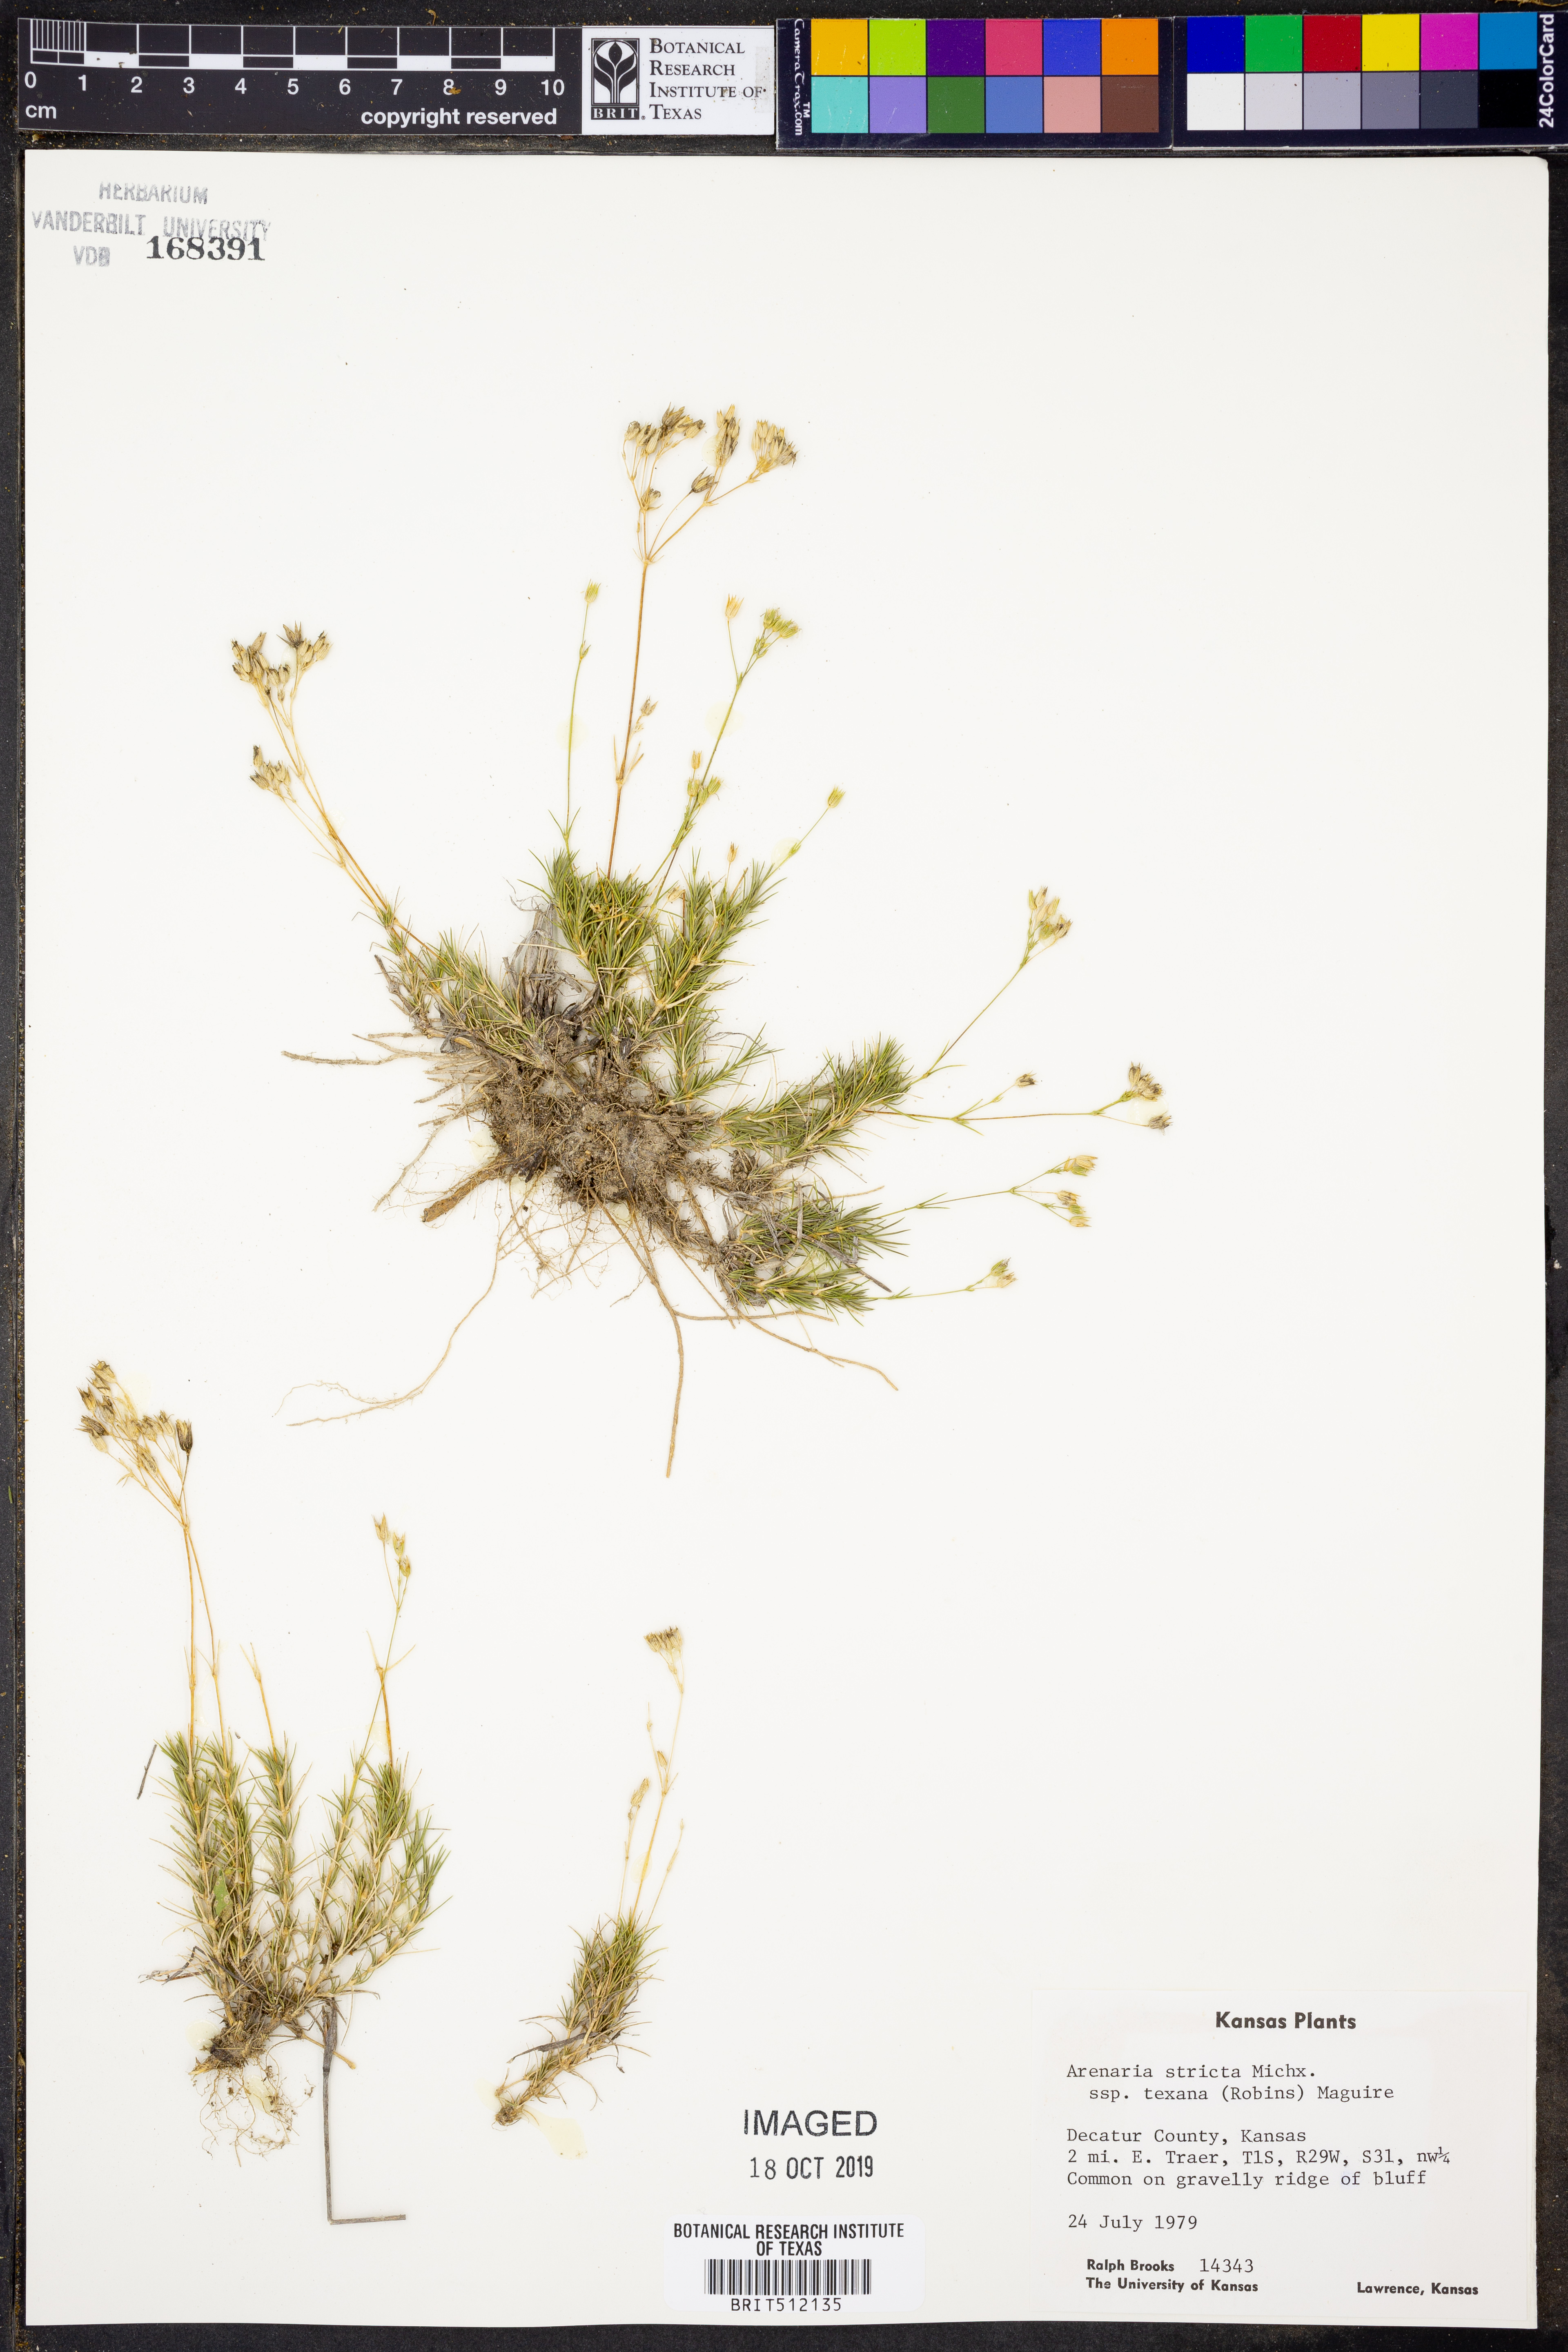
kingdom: Plantae
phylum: Tracheophyta
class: Magnoliopsida
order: Caryophyllales
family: Caryophyllaceae
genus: Sabulina
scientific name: Sabulina texana
